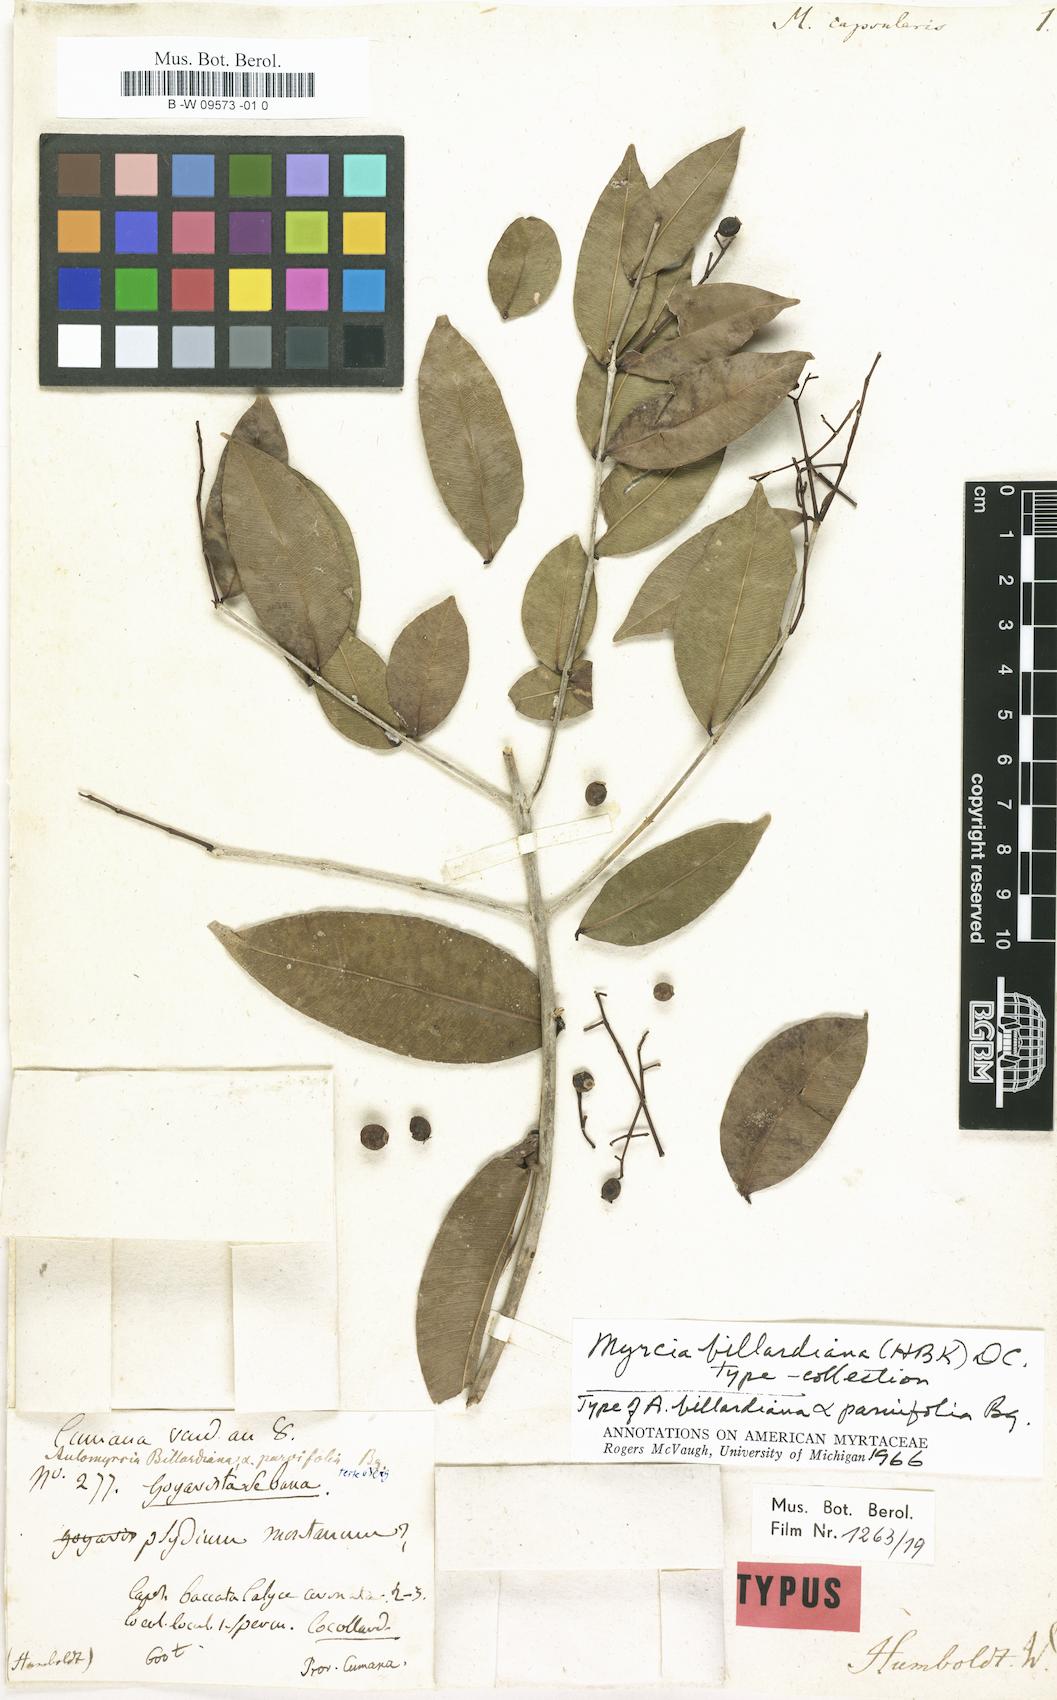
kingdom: Plantae
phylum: Tracheophyta
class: Magnoliopsida
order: Myrtales
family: Myrtaceae
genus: Myrtus
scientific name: Myrtus
